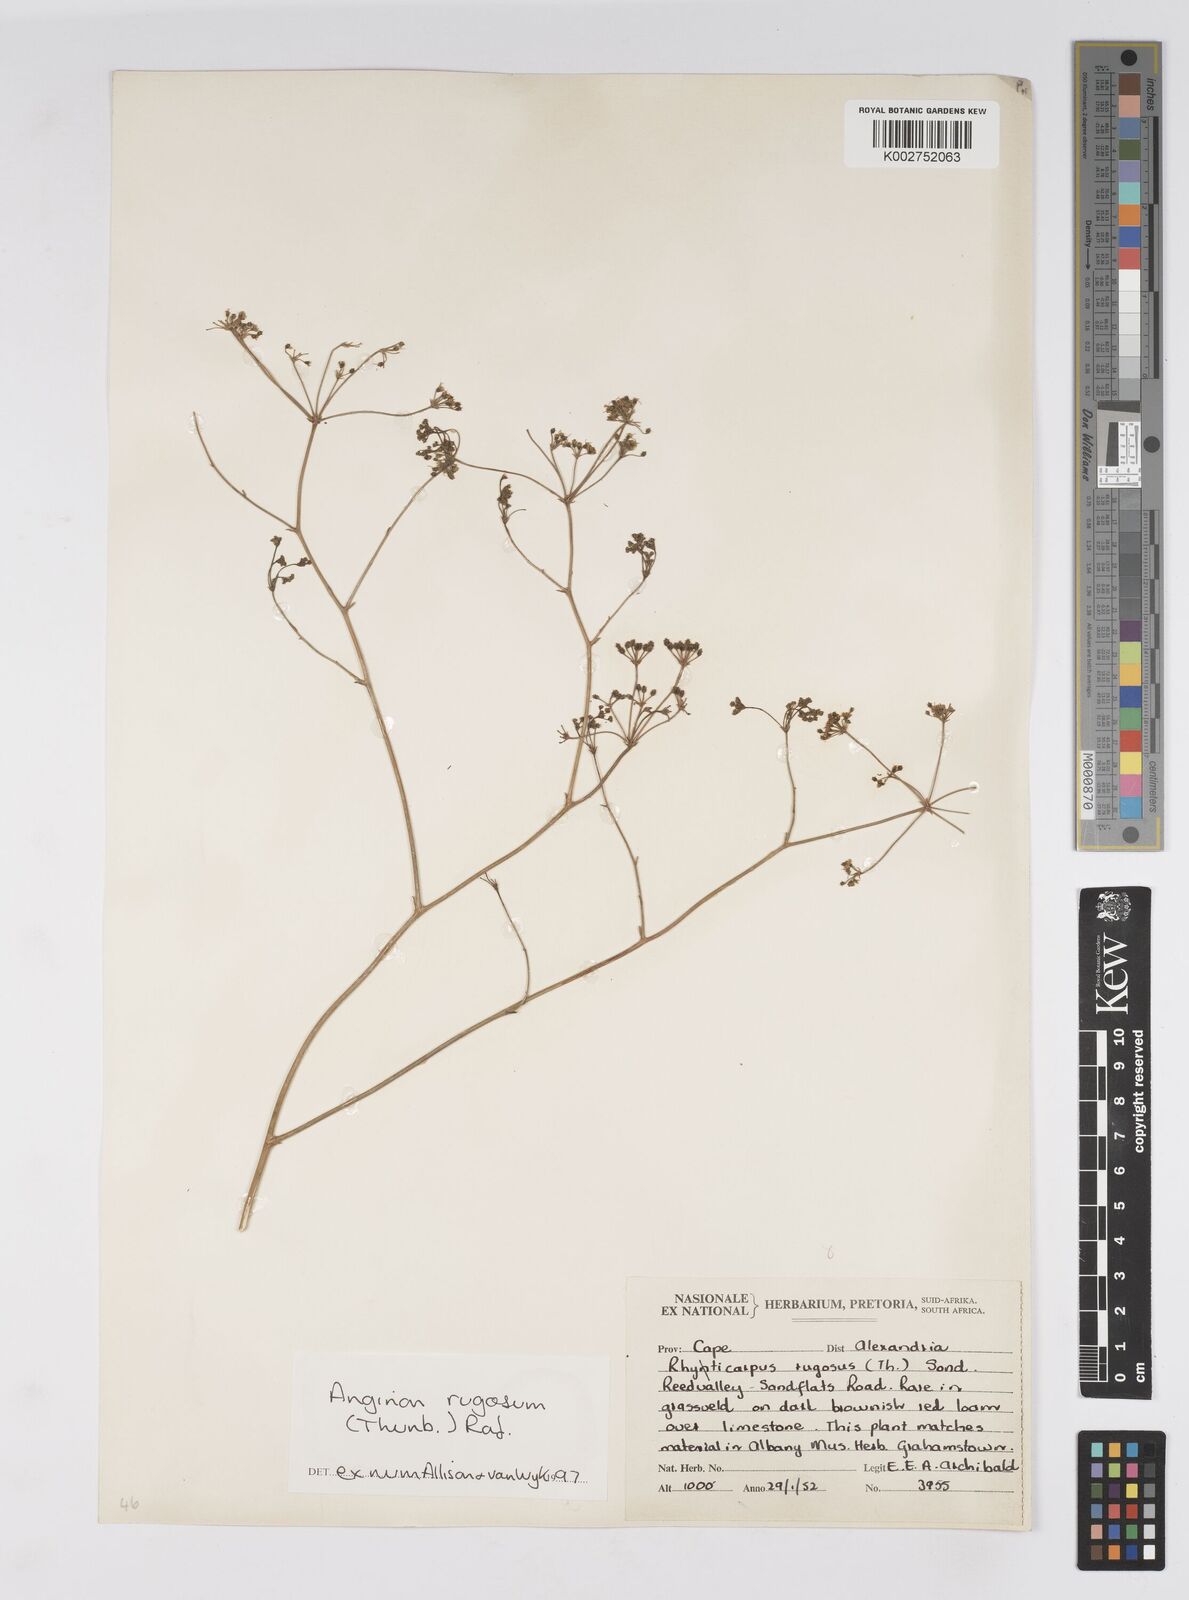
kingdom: Plantae
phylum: Tracheophyta
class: Magnoliopsida
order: Apiales
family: Apiaceae
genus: Anginon
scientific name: Anginon rugosum
